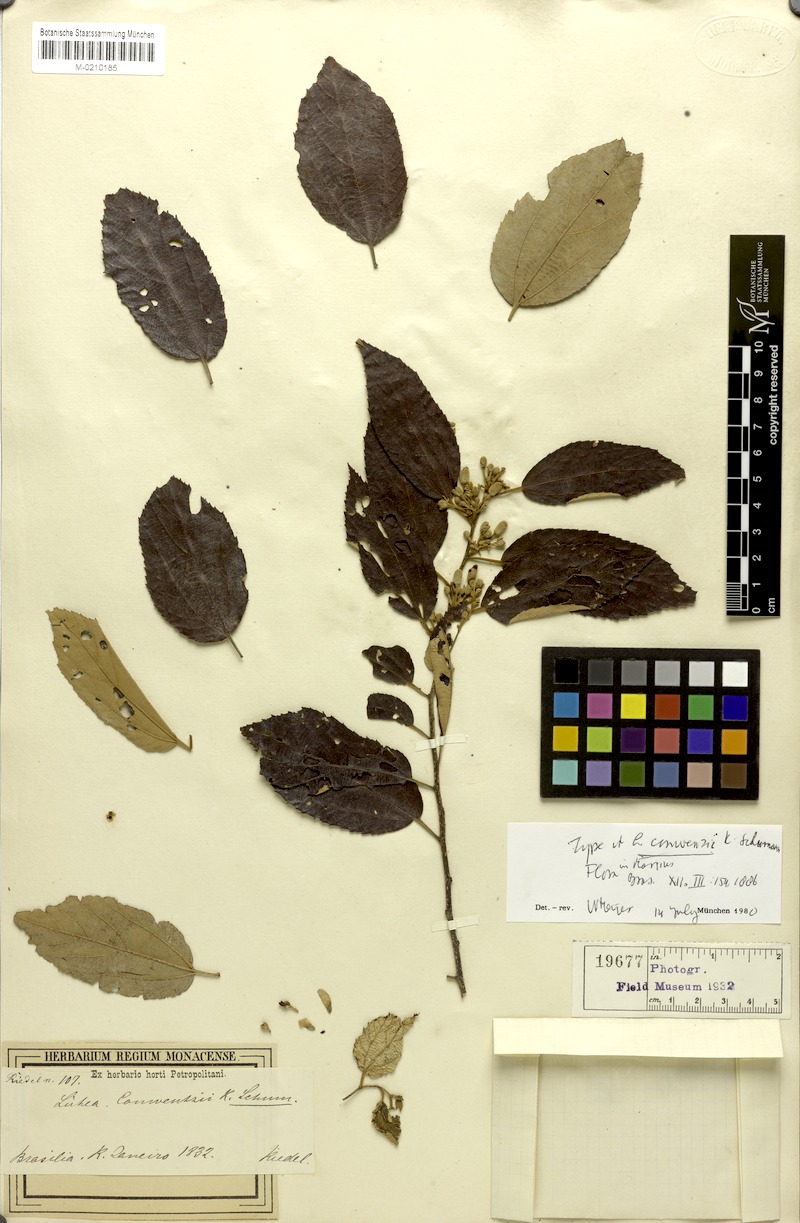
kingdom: Plantae
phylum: Tracheophyta
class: Magnoliopsida
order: Malvales
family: Malvaceae
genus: Luehea
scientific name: Luehea conwentzii
